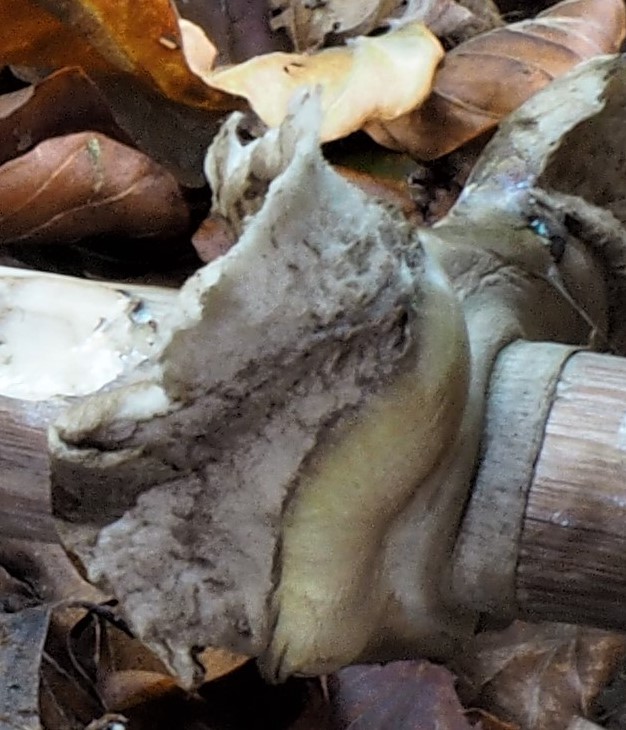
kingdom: Fungi
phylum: Basidiomycota
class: Agaricomycetes
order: Agaricales
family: Agaricaceae
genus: Chlorophyllum
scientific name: Chlorophyllum rhacodes
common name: ægte rabarberhat
